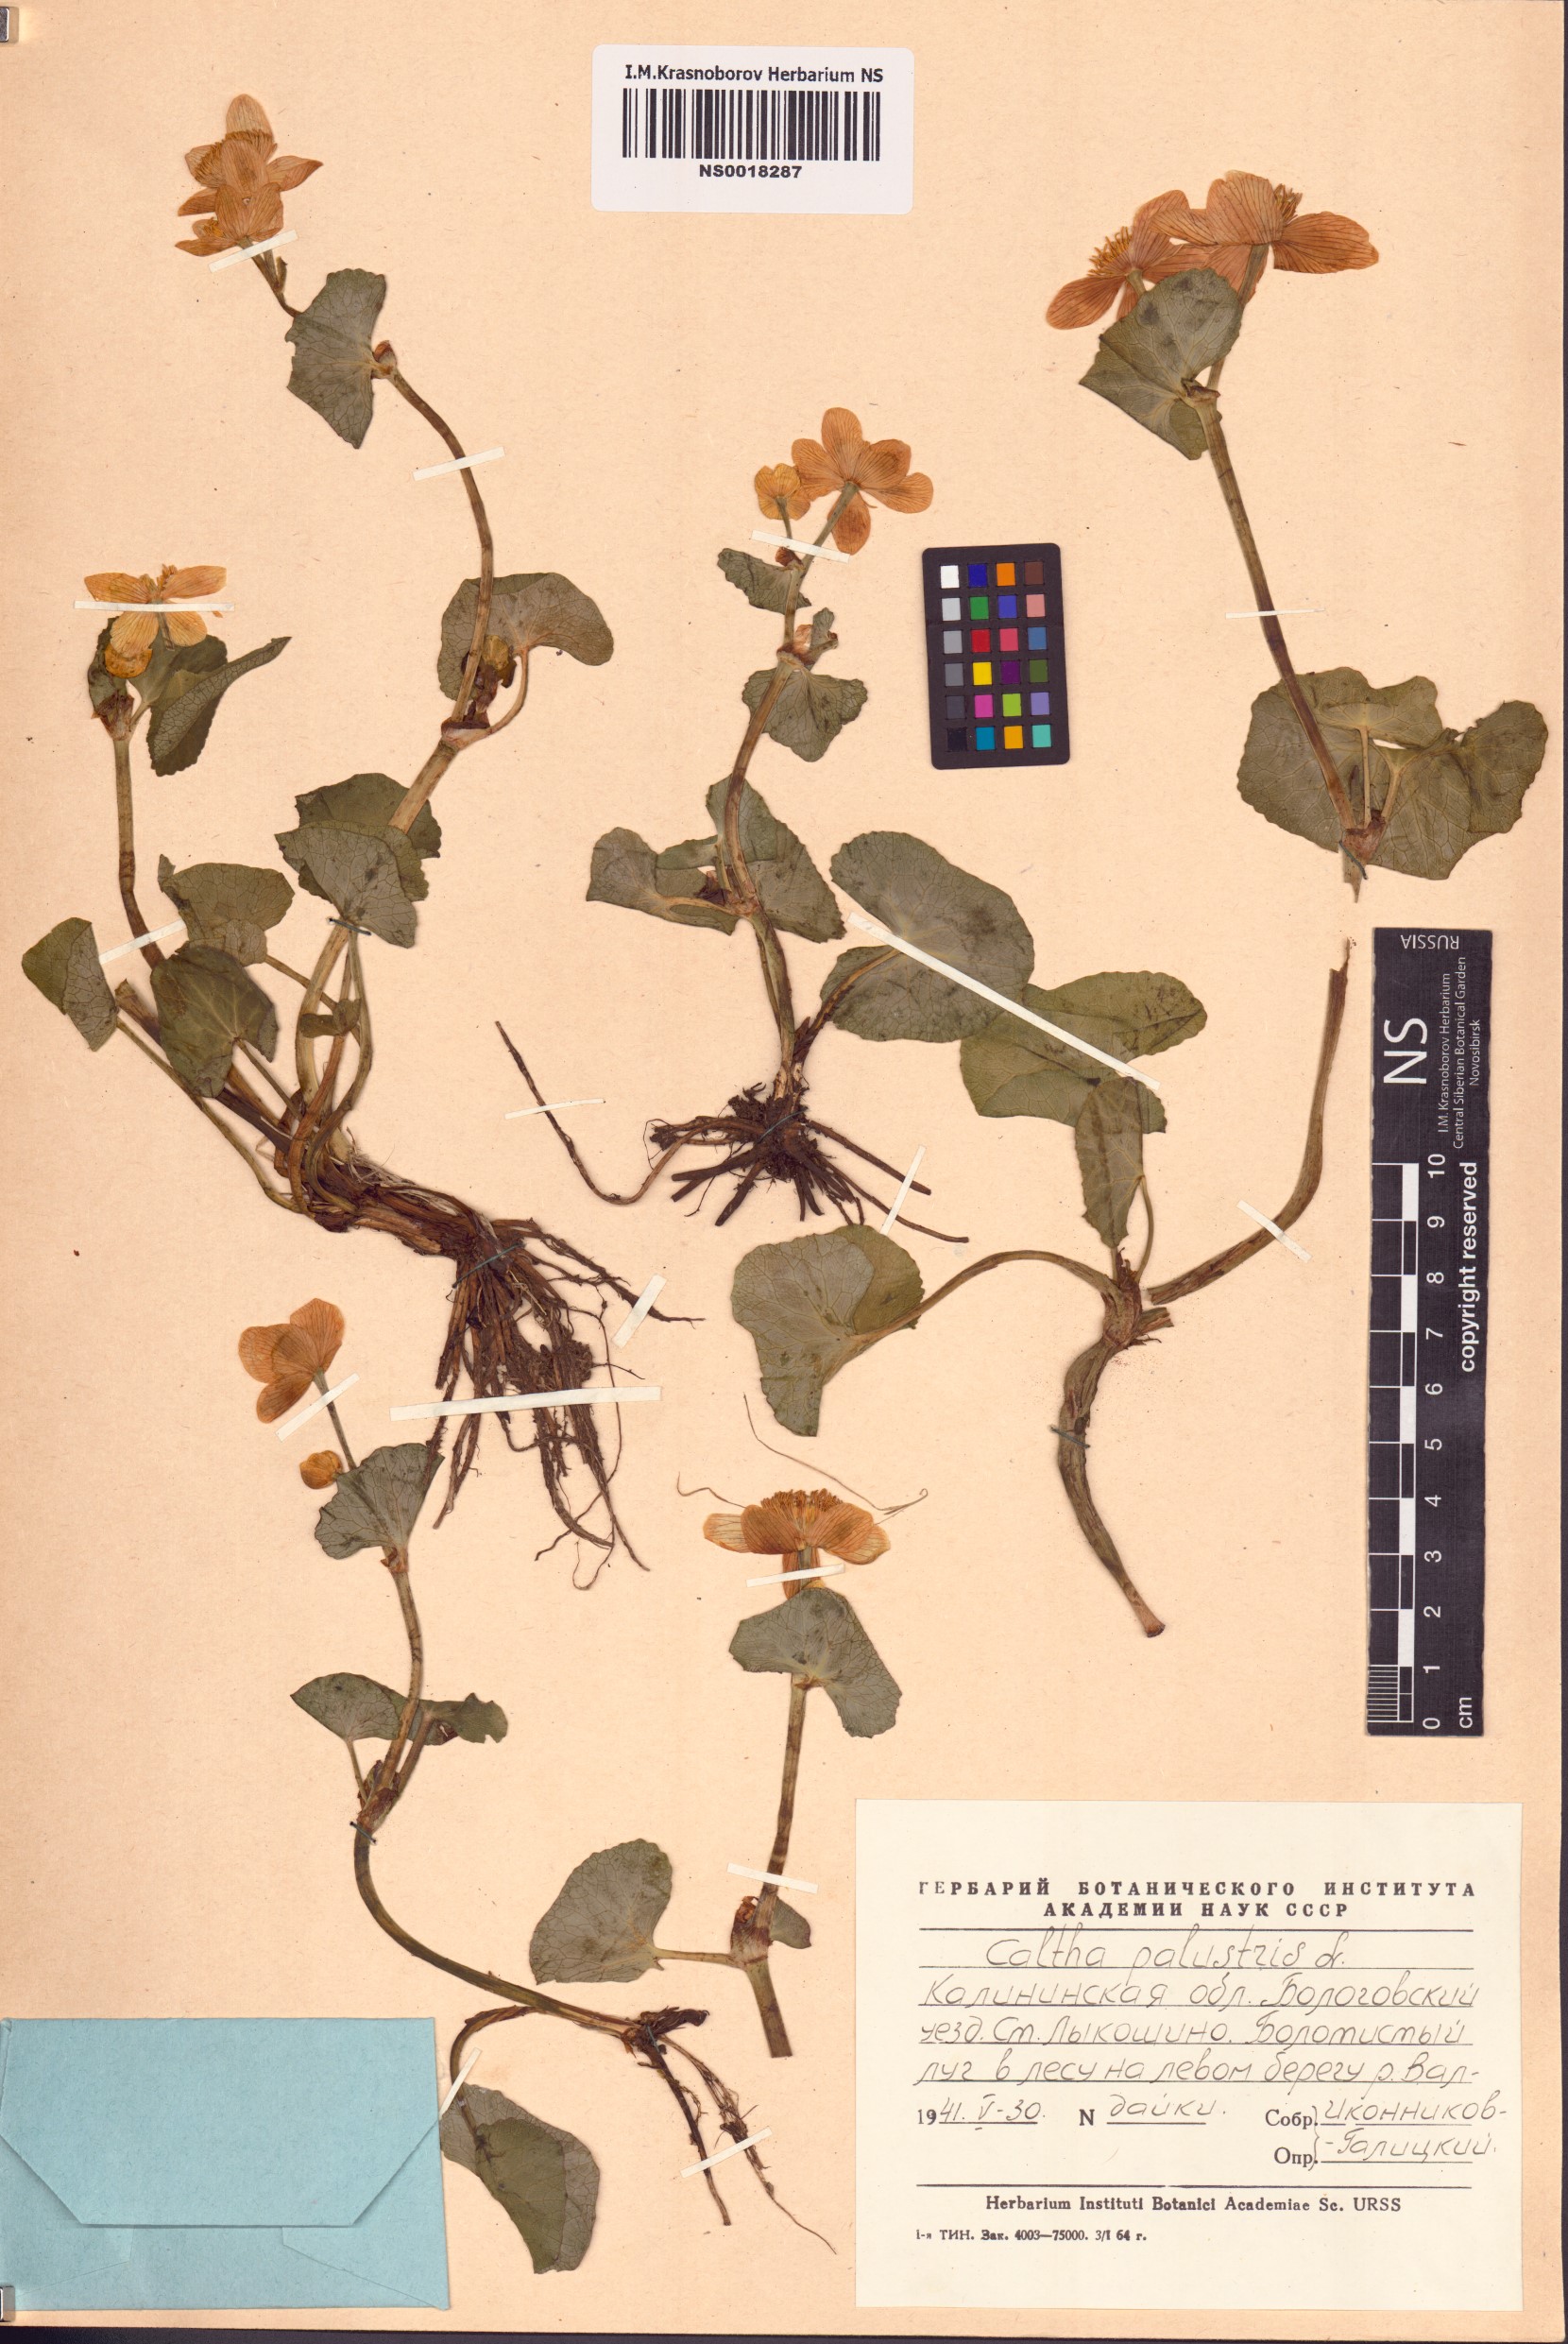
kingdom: Plantae
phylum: Tracheophyta
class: Magnoliopsida
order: Ranunculales
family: Ranunculaceae
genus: Caltha
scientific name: Caltha palustris
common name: Marsh marigold
